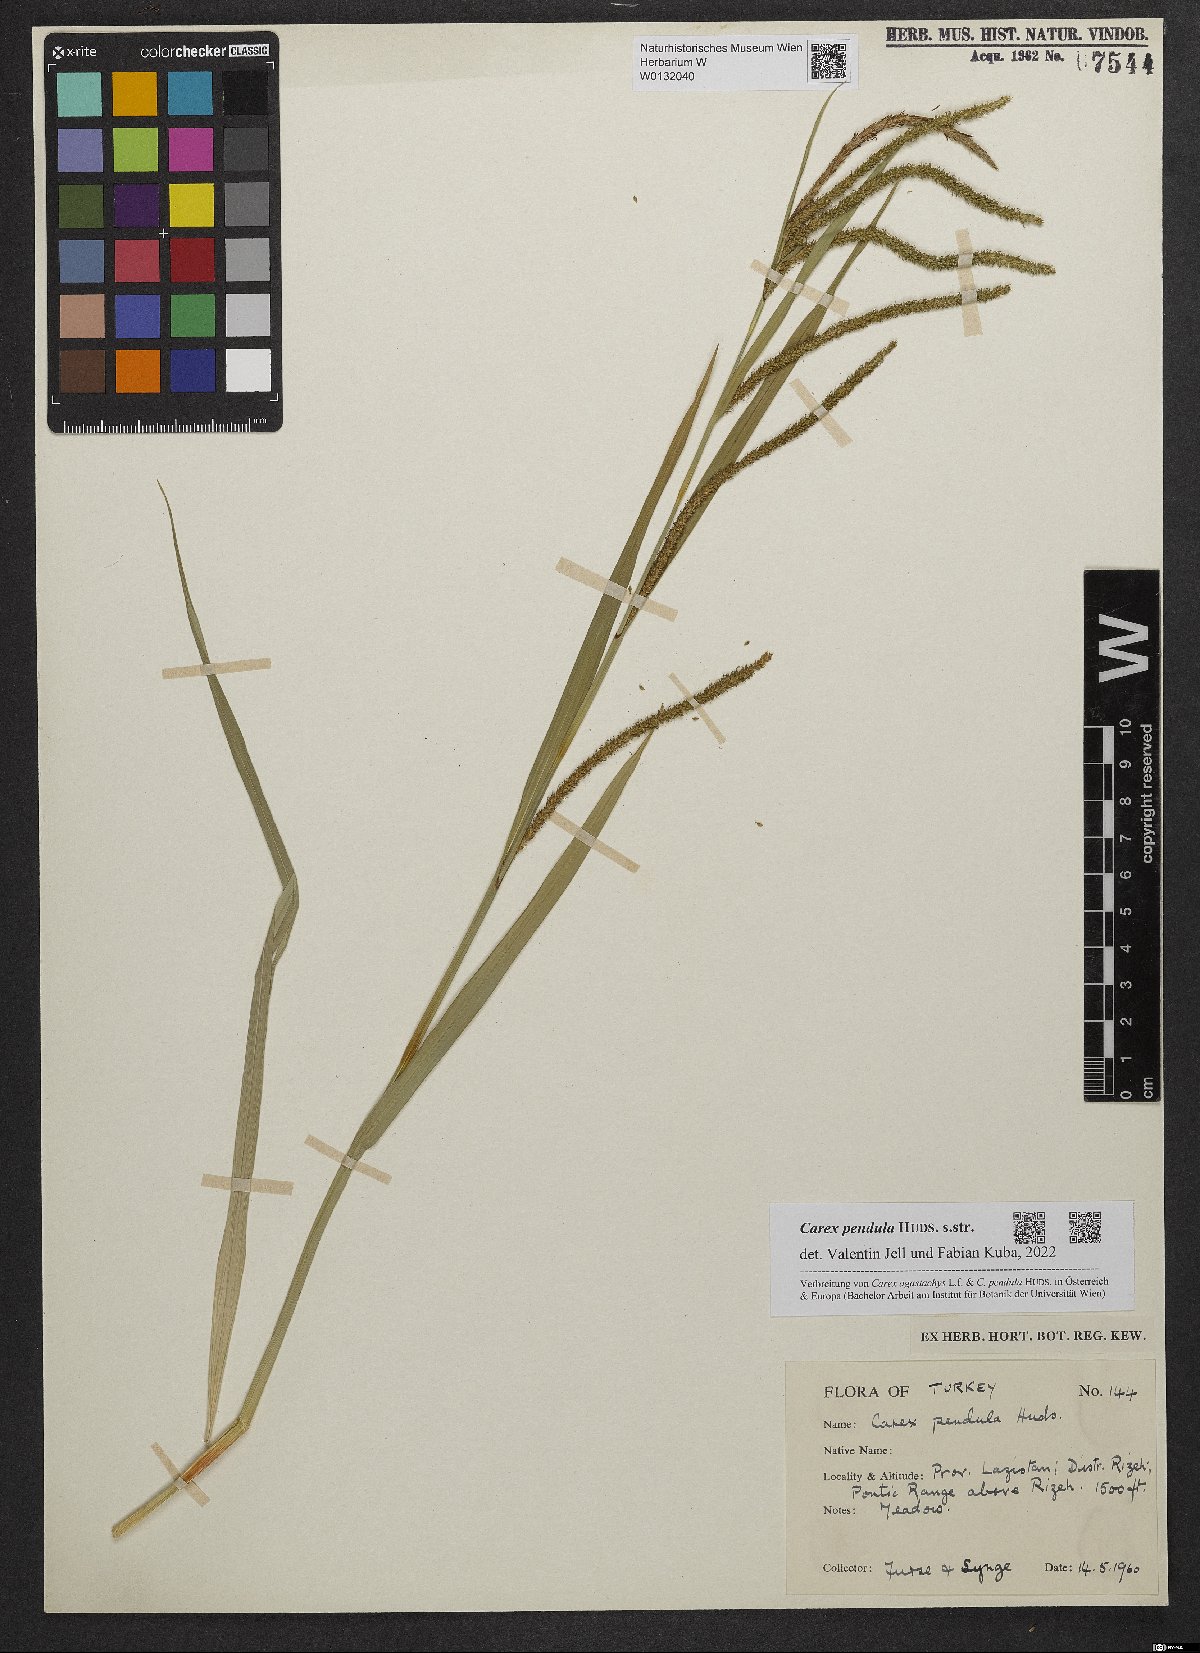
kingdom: Plantae
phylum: Tracheophyta
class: Liliopsida
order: Poales
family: Cyperaceae
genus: Carex
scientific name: Carex pendula
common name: Pendulous sedge
